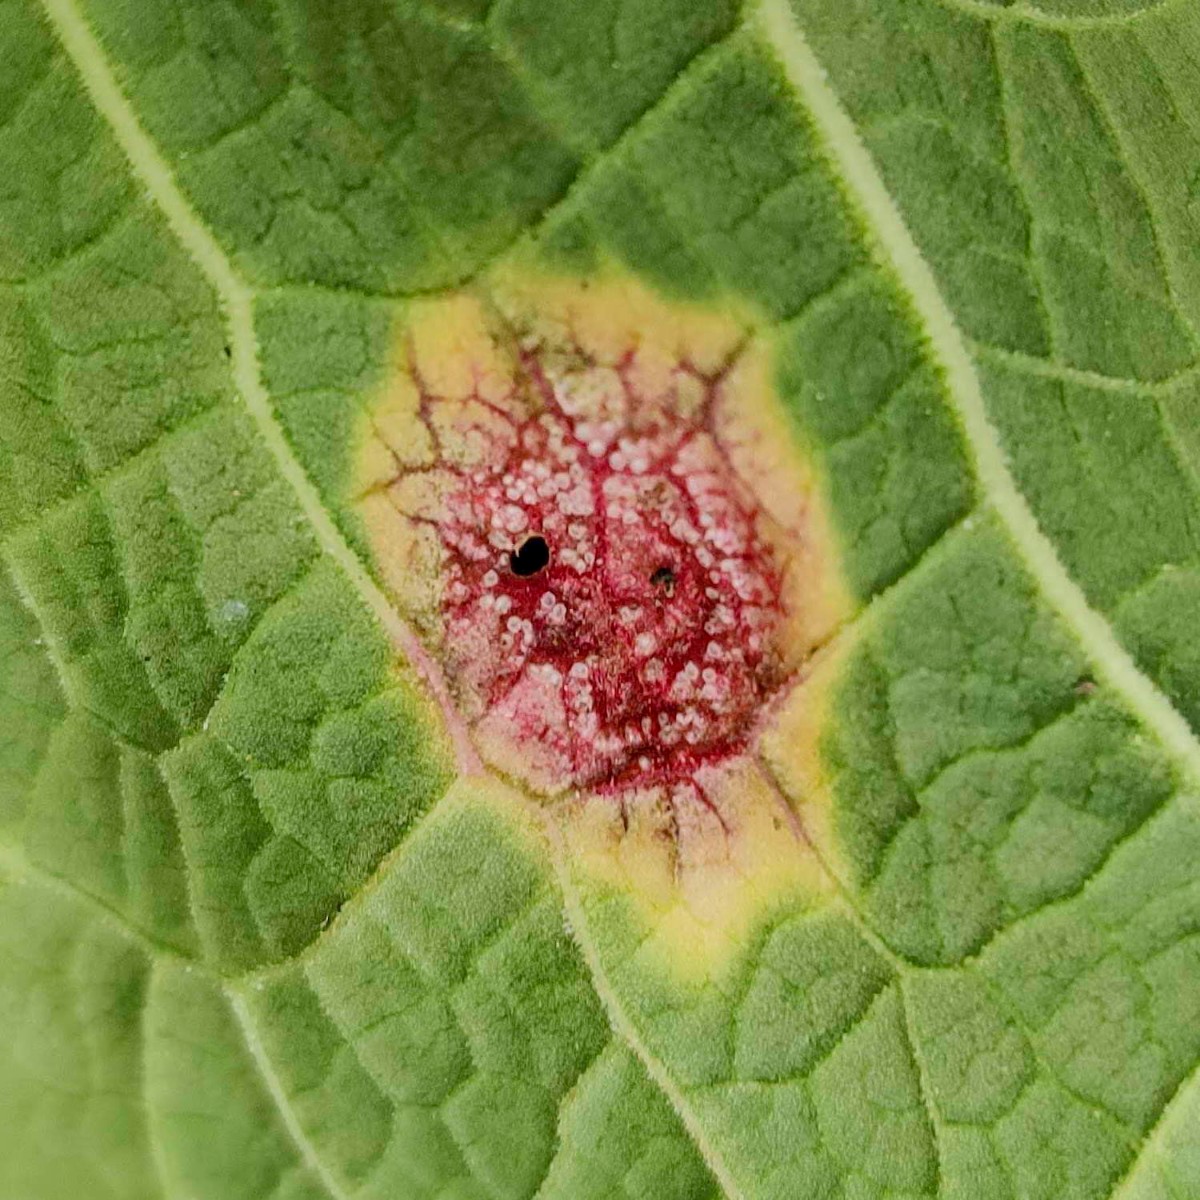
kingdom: Fungi
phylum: Basidiomycota
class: Pucciniomycetes
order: Pucciniales
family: Pucciniaceae
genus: Puccinia
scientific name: Puccinia phragmitis
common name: tagrør-tvecellerust
